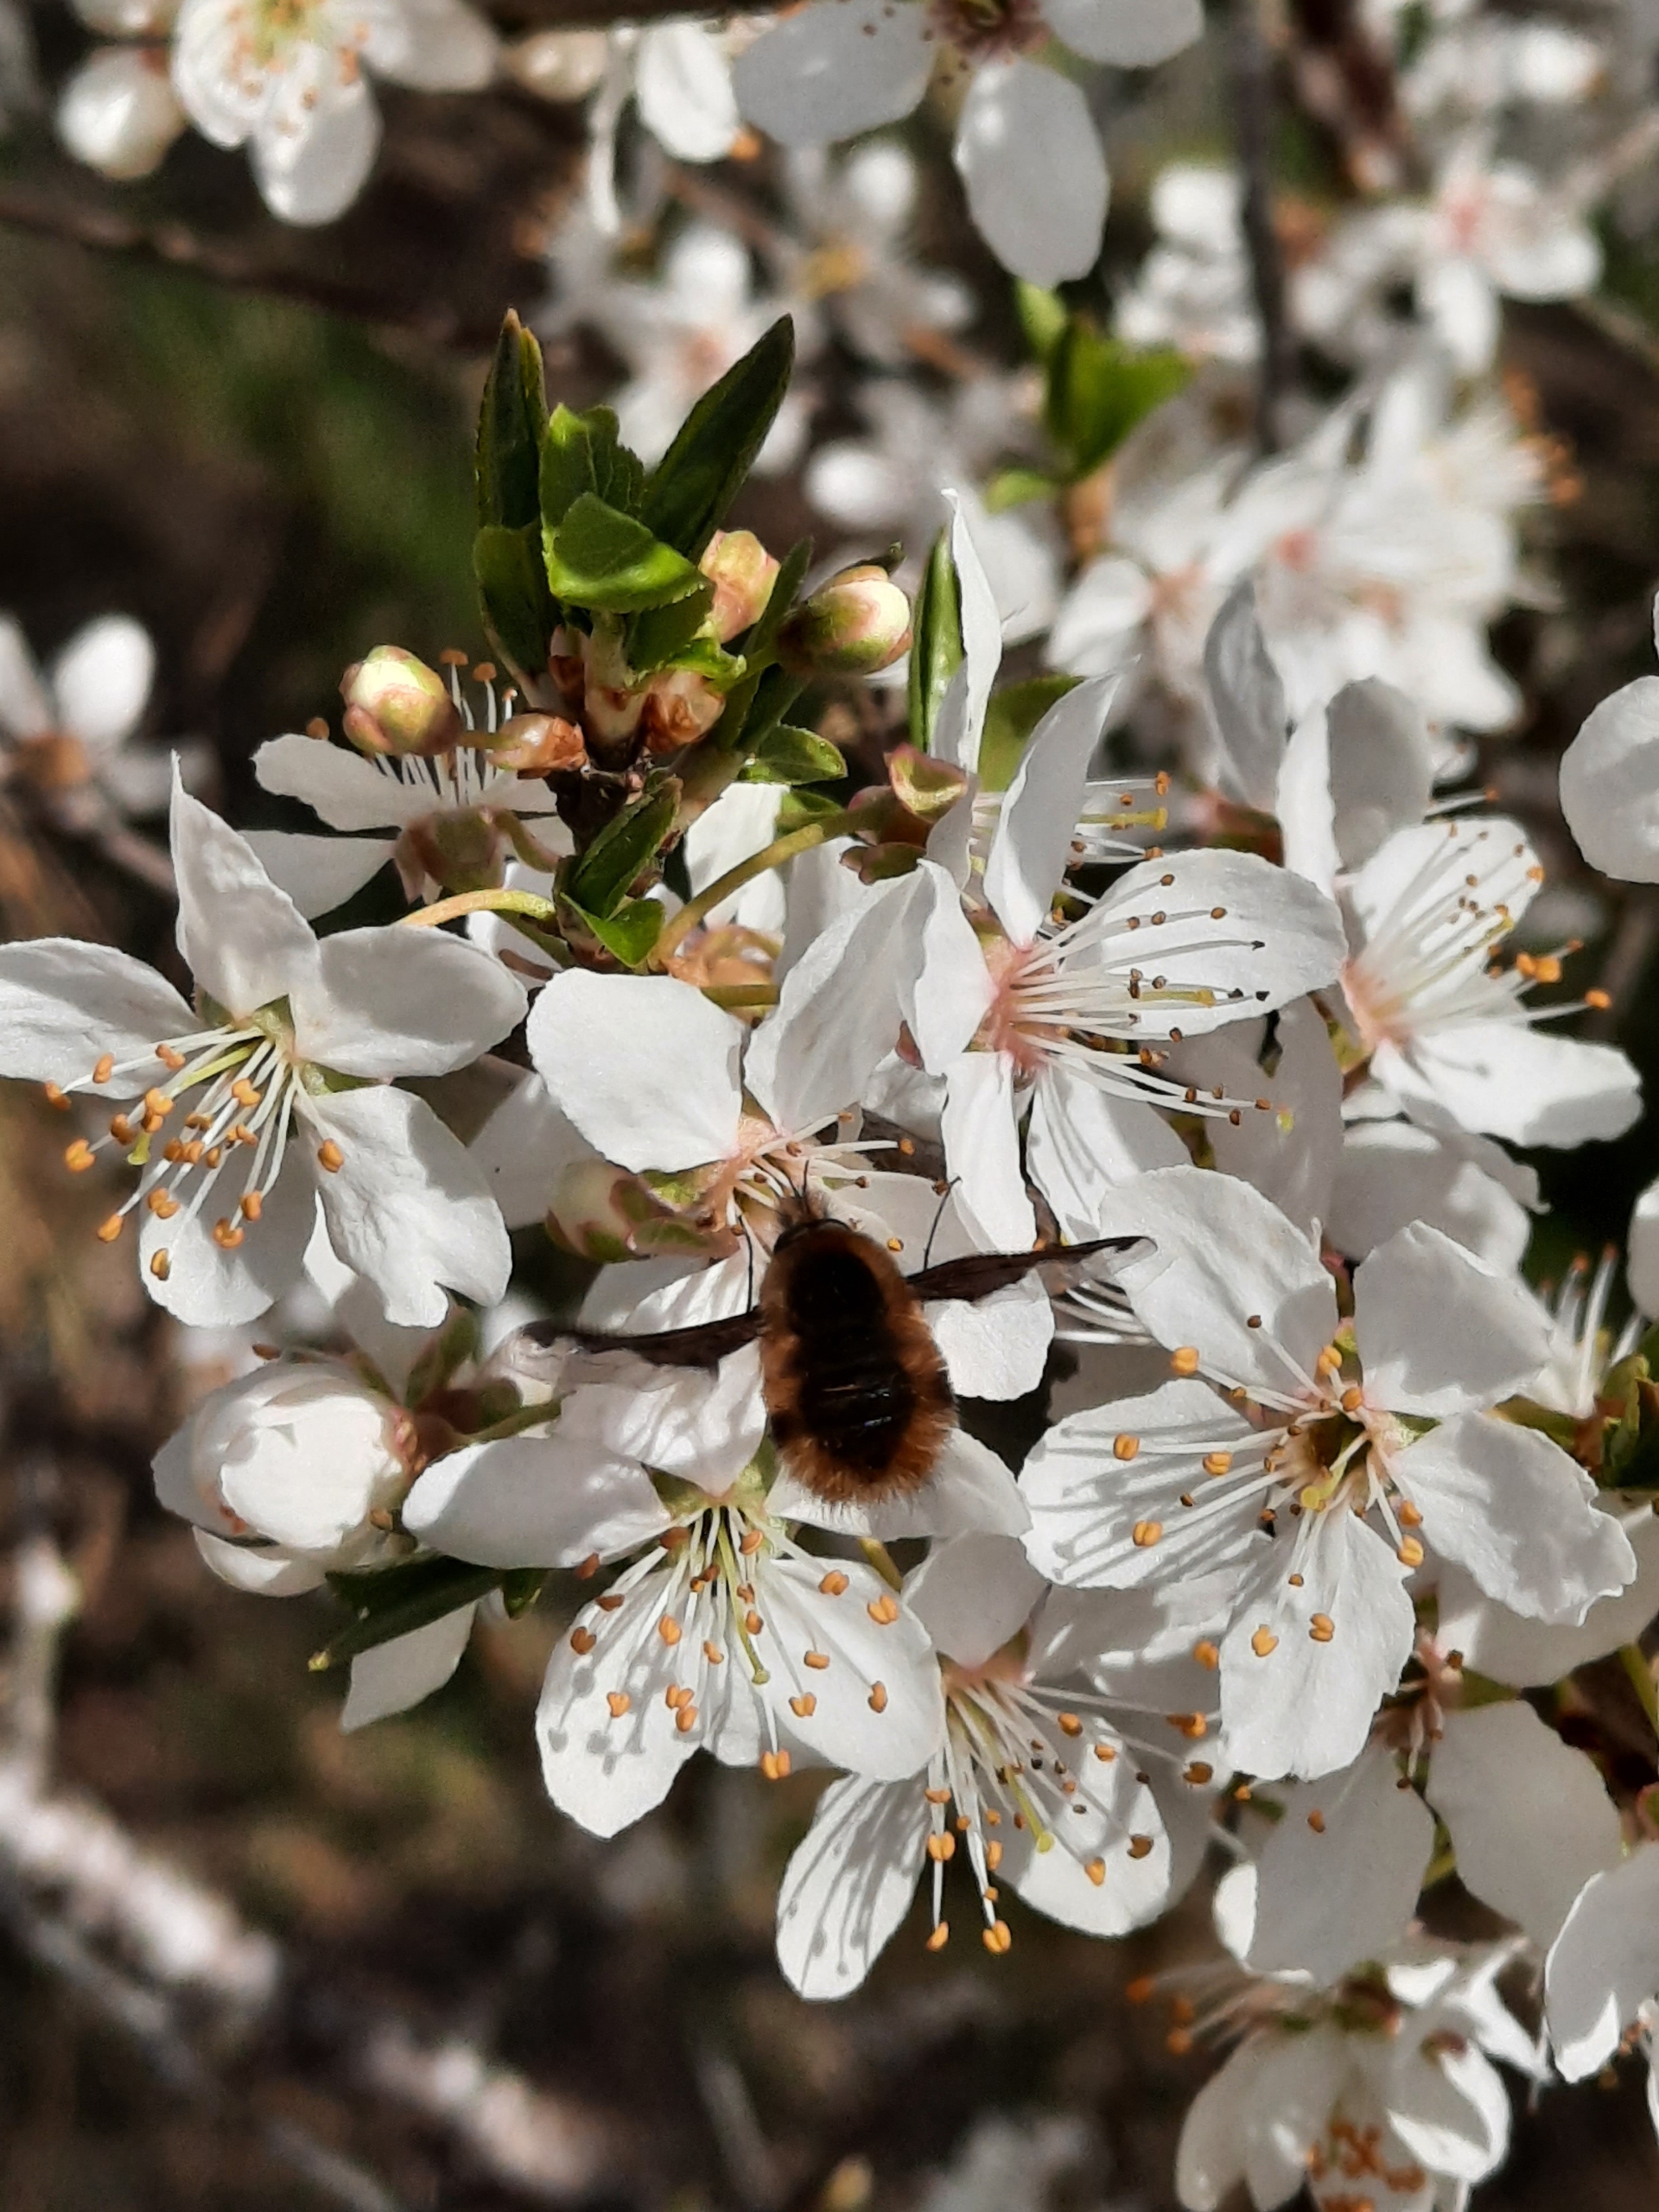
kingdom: Animalia
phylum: Arthropoda
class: Insecta
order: Diptera
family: Bombyliidae
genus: Bombylius
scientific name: Bombylius major
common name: Stor humleflue
